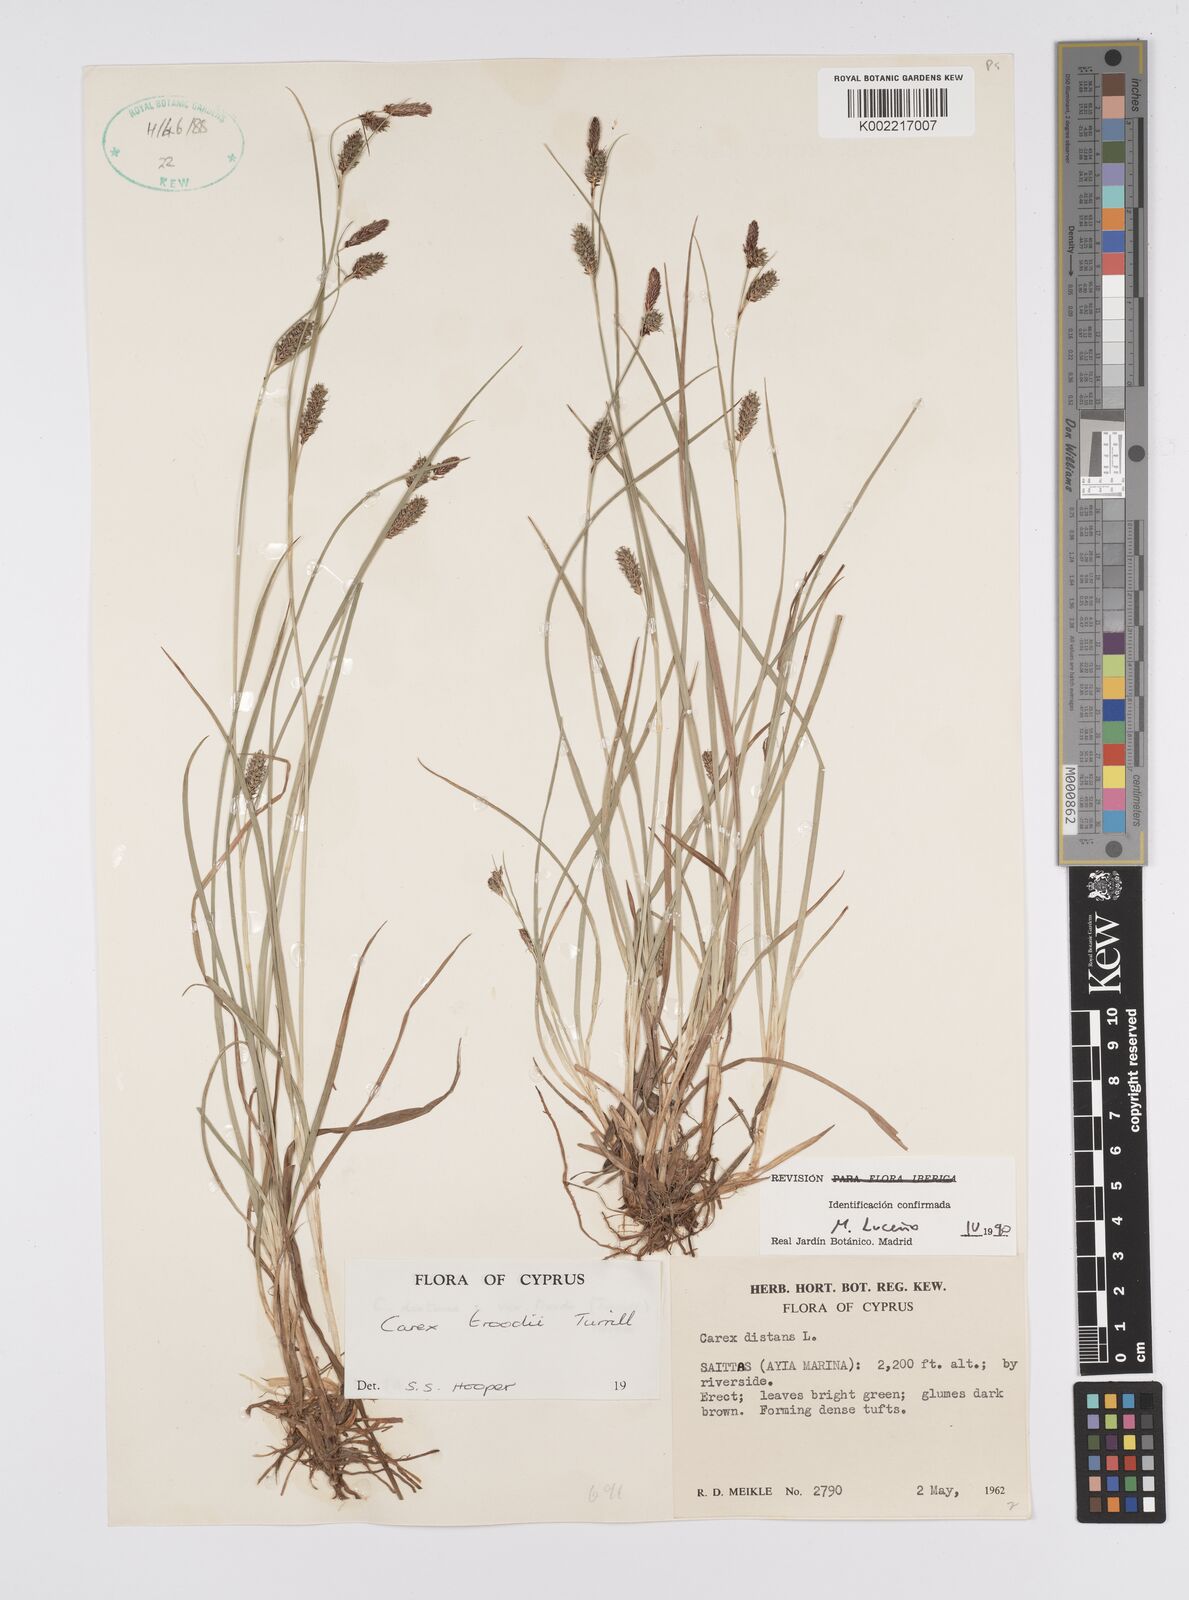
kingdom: Plantae
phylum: Tracheophyta
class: Liliopsida
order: Poales
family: Cyperaceae
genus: Carex
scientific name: Carex troodi
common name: Troodos mount sedge
